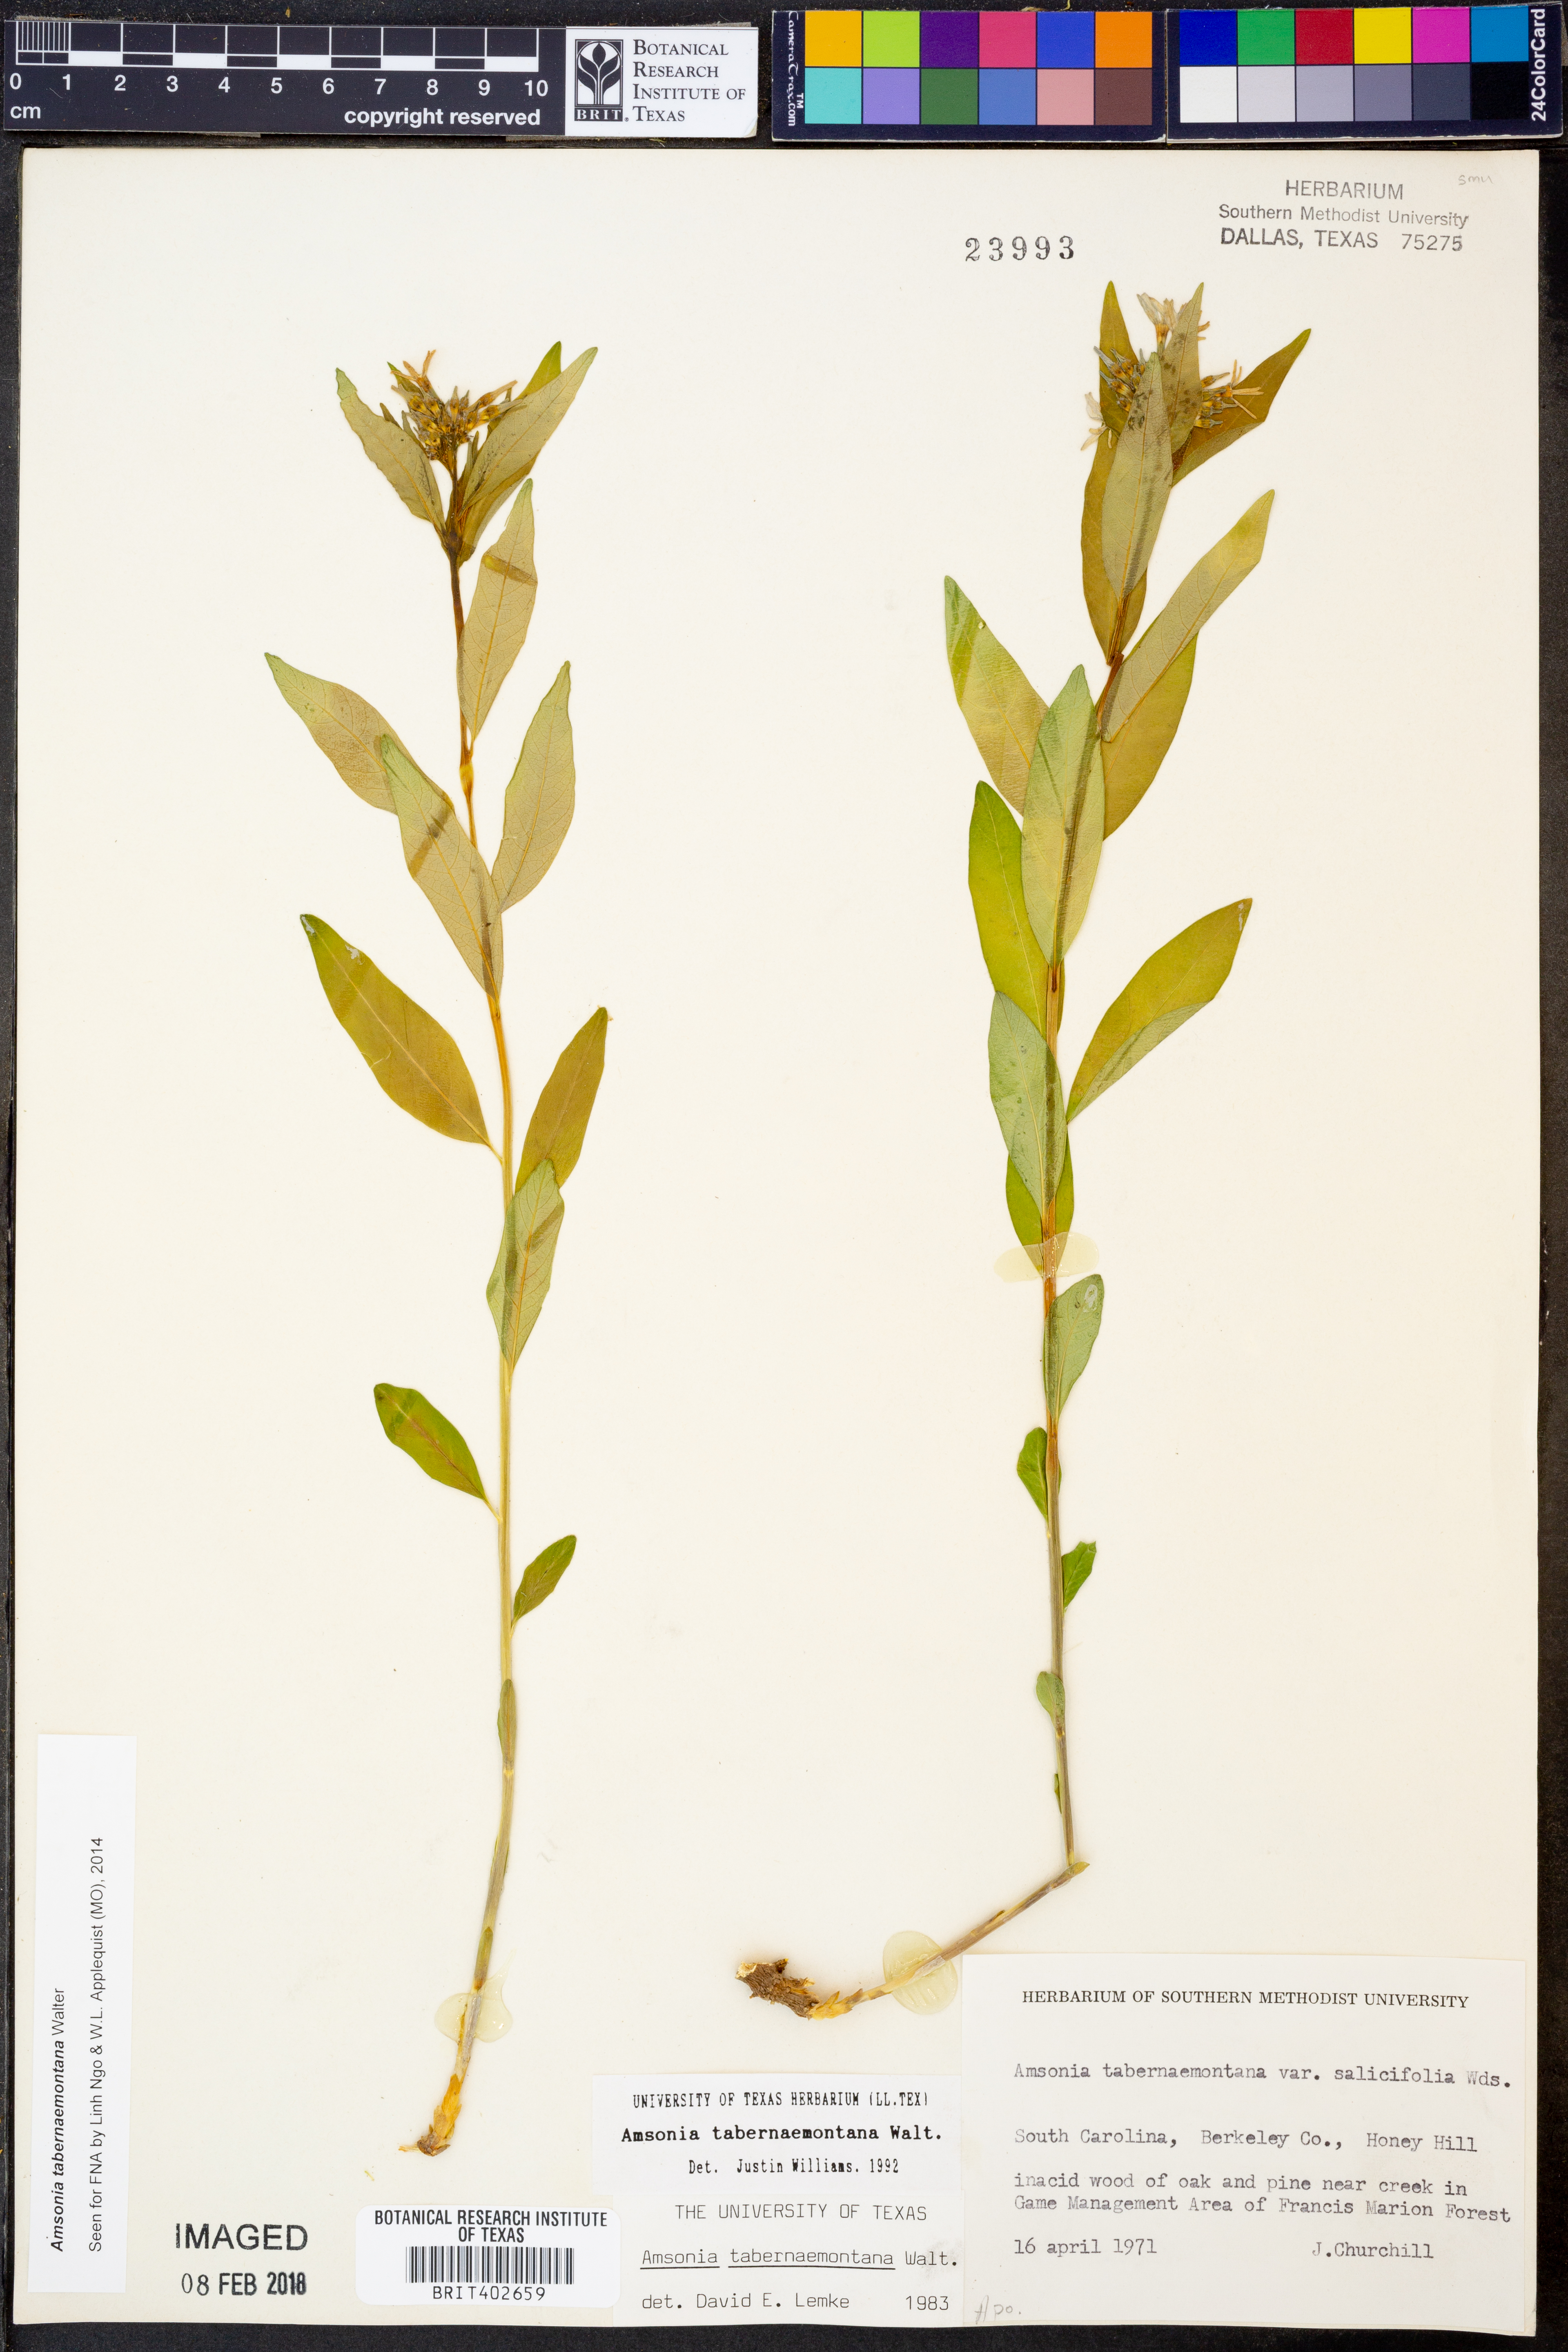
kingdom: Plantae
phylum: Tracheophyta
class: Magnoliopsida
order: Gentianales
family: Apocynaceae
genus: Amsonia
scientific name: Amsonia tabernaemontana
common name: Texas-star
